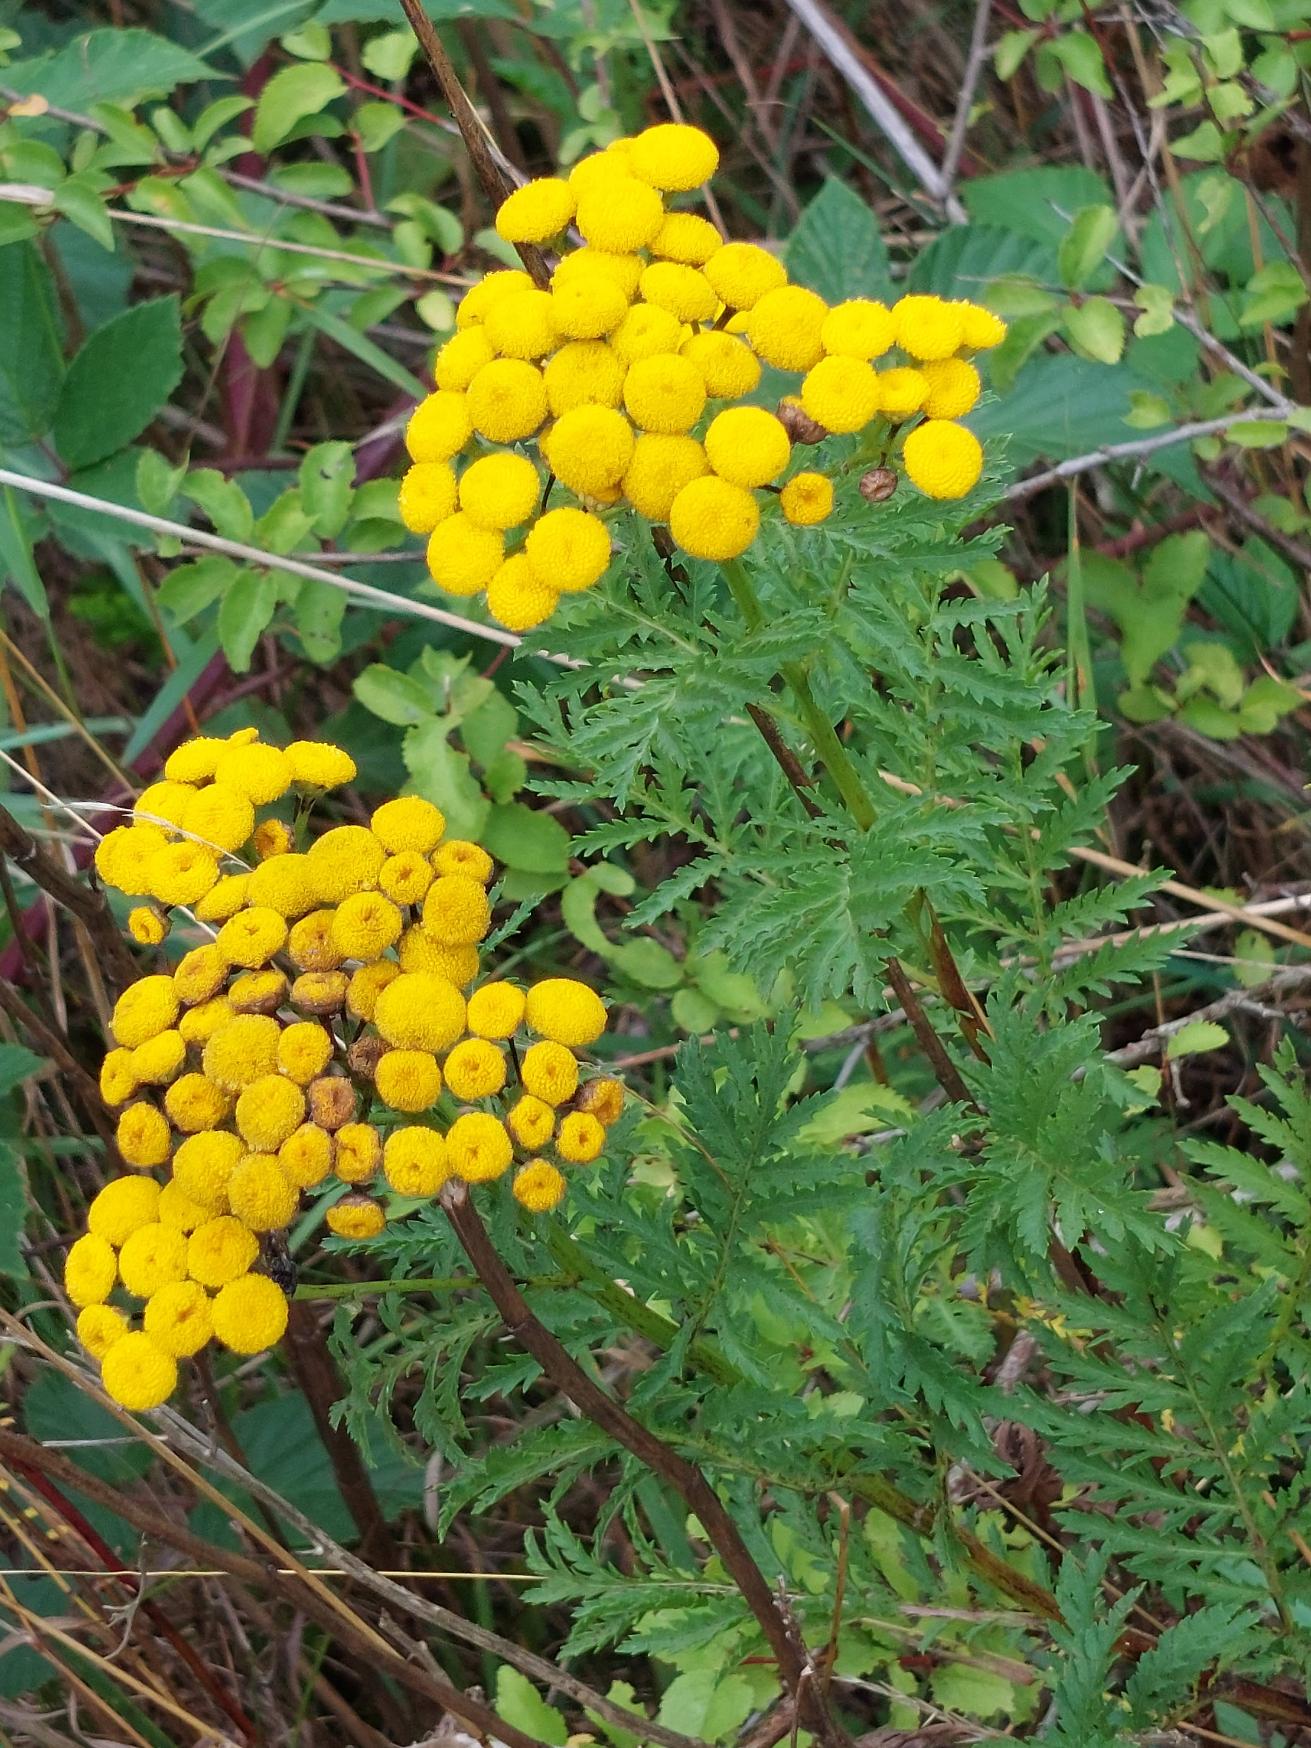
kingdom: Plantae
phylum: Tracheophyta
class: Magnoliopsida
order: Asterales
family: Asteraceae
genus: Tanacetum
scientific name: Tanacetum vulgare
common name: Rejnfan
